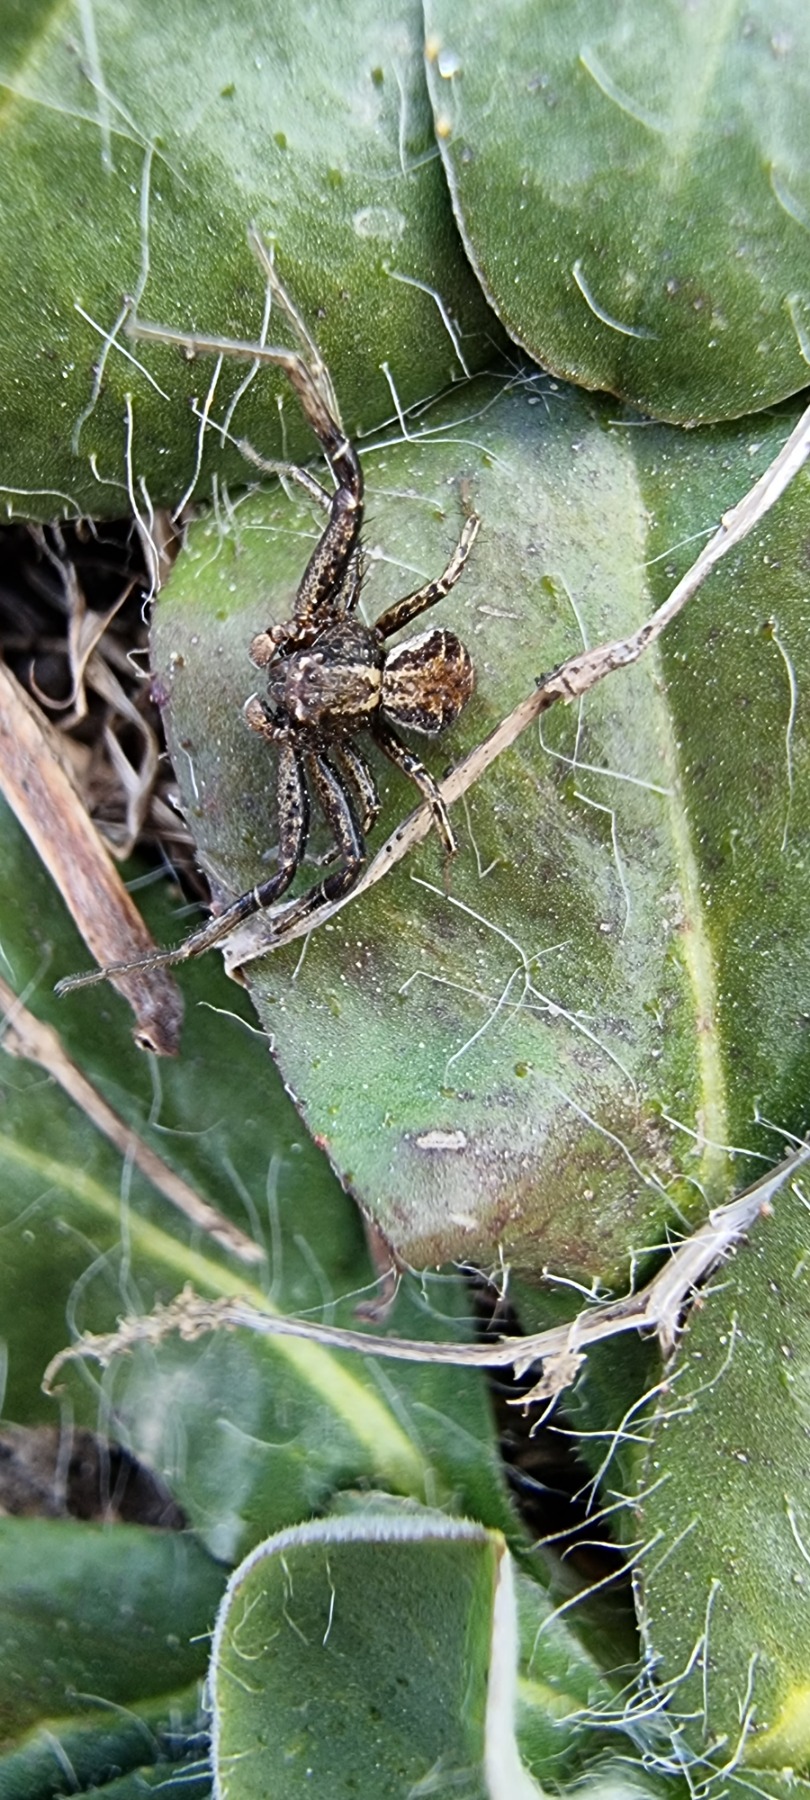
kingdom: Animalia
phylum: Arthropoda
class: Arachnida
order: Araneae
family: Thomisidae
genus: Xysticus
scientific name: Xysticus
